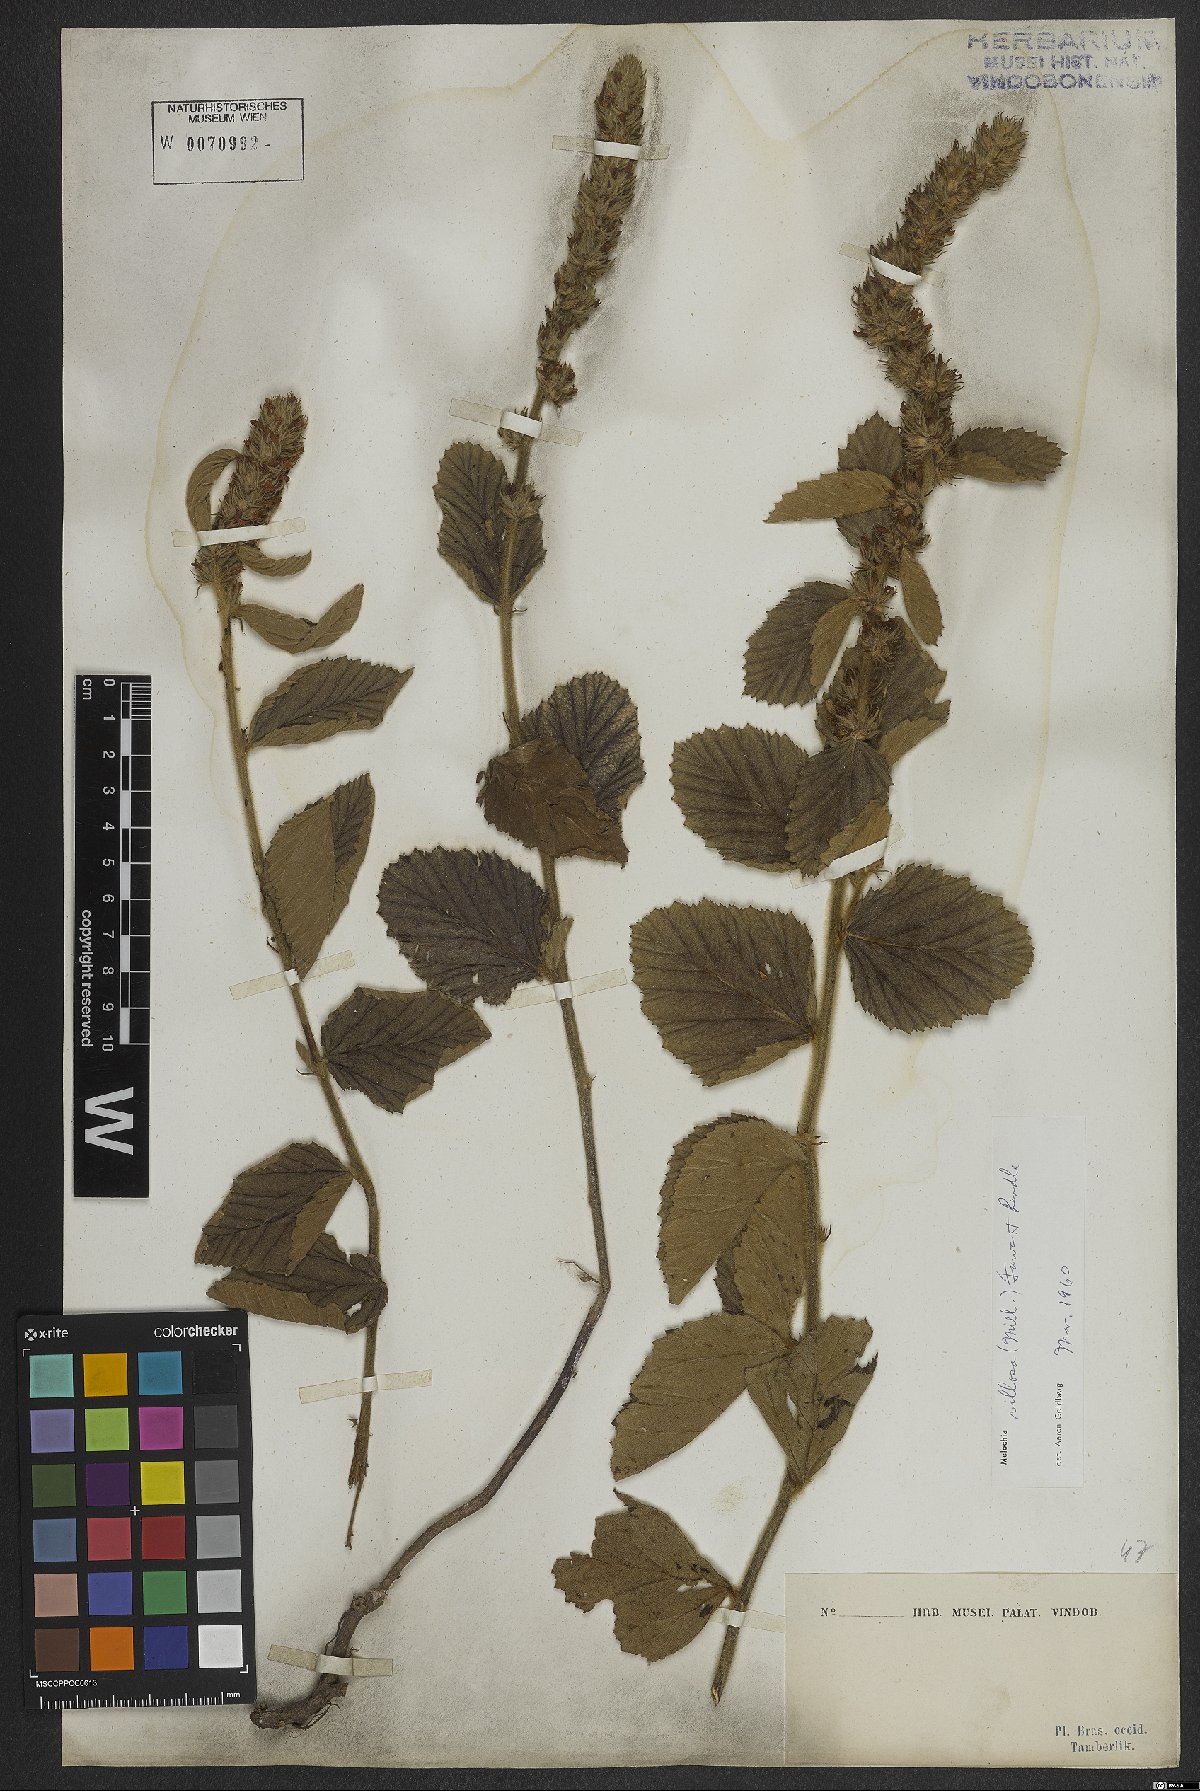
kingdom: Plantae
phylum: Tracheophyta
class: Magnoliopsida
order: Malvales
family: Malvaceae
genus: Melochia
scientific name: Melochia spicata
